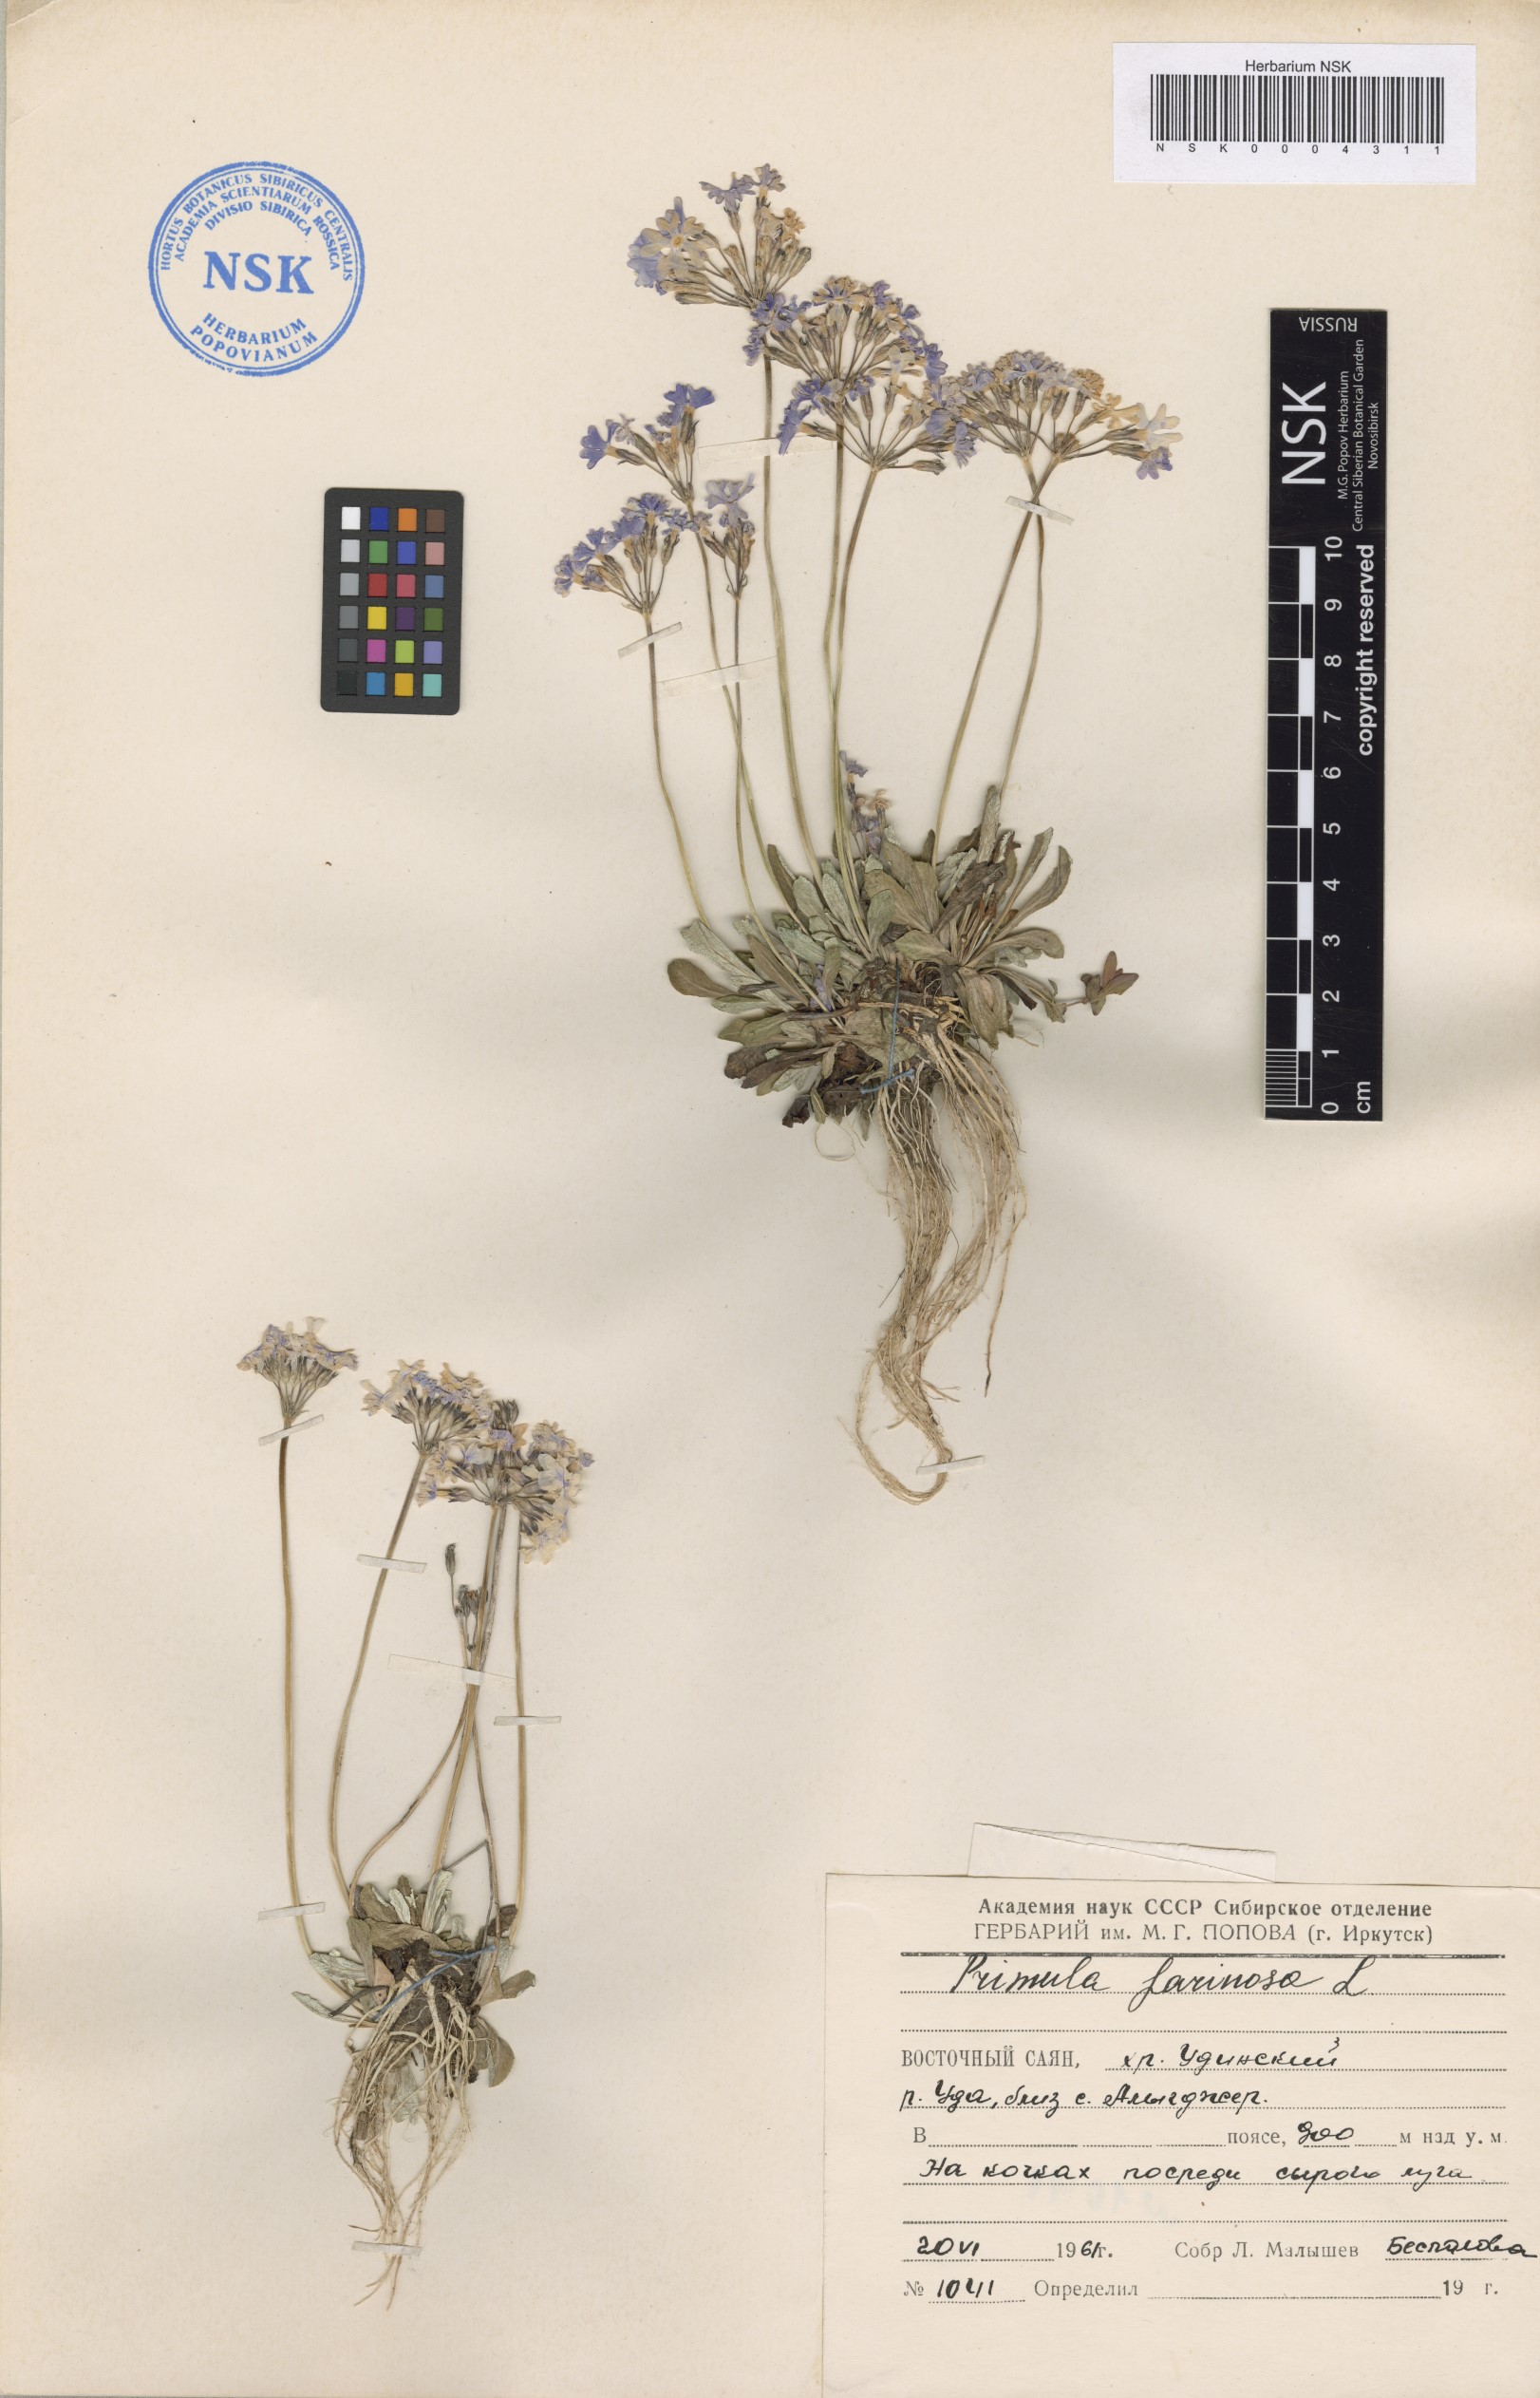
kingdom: Plantae
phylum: Tracheophyta
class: Magnoliopsida
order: Ericales
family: Primulaceae
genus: Primula
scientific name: Primula farinosa
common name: Bird's-eye primrose
